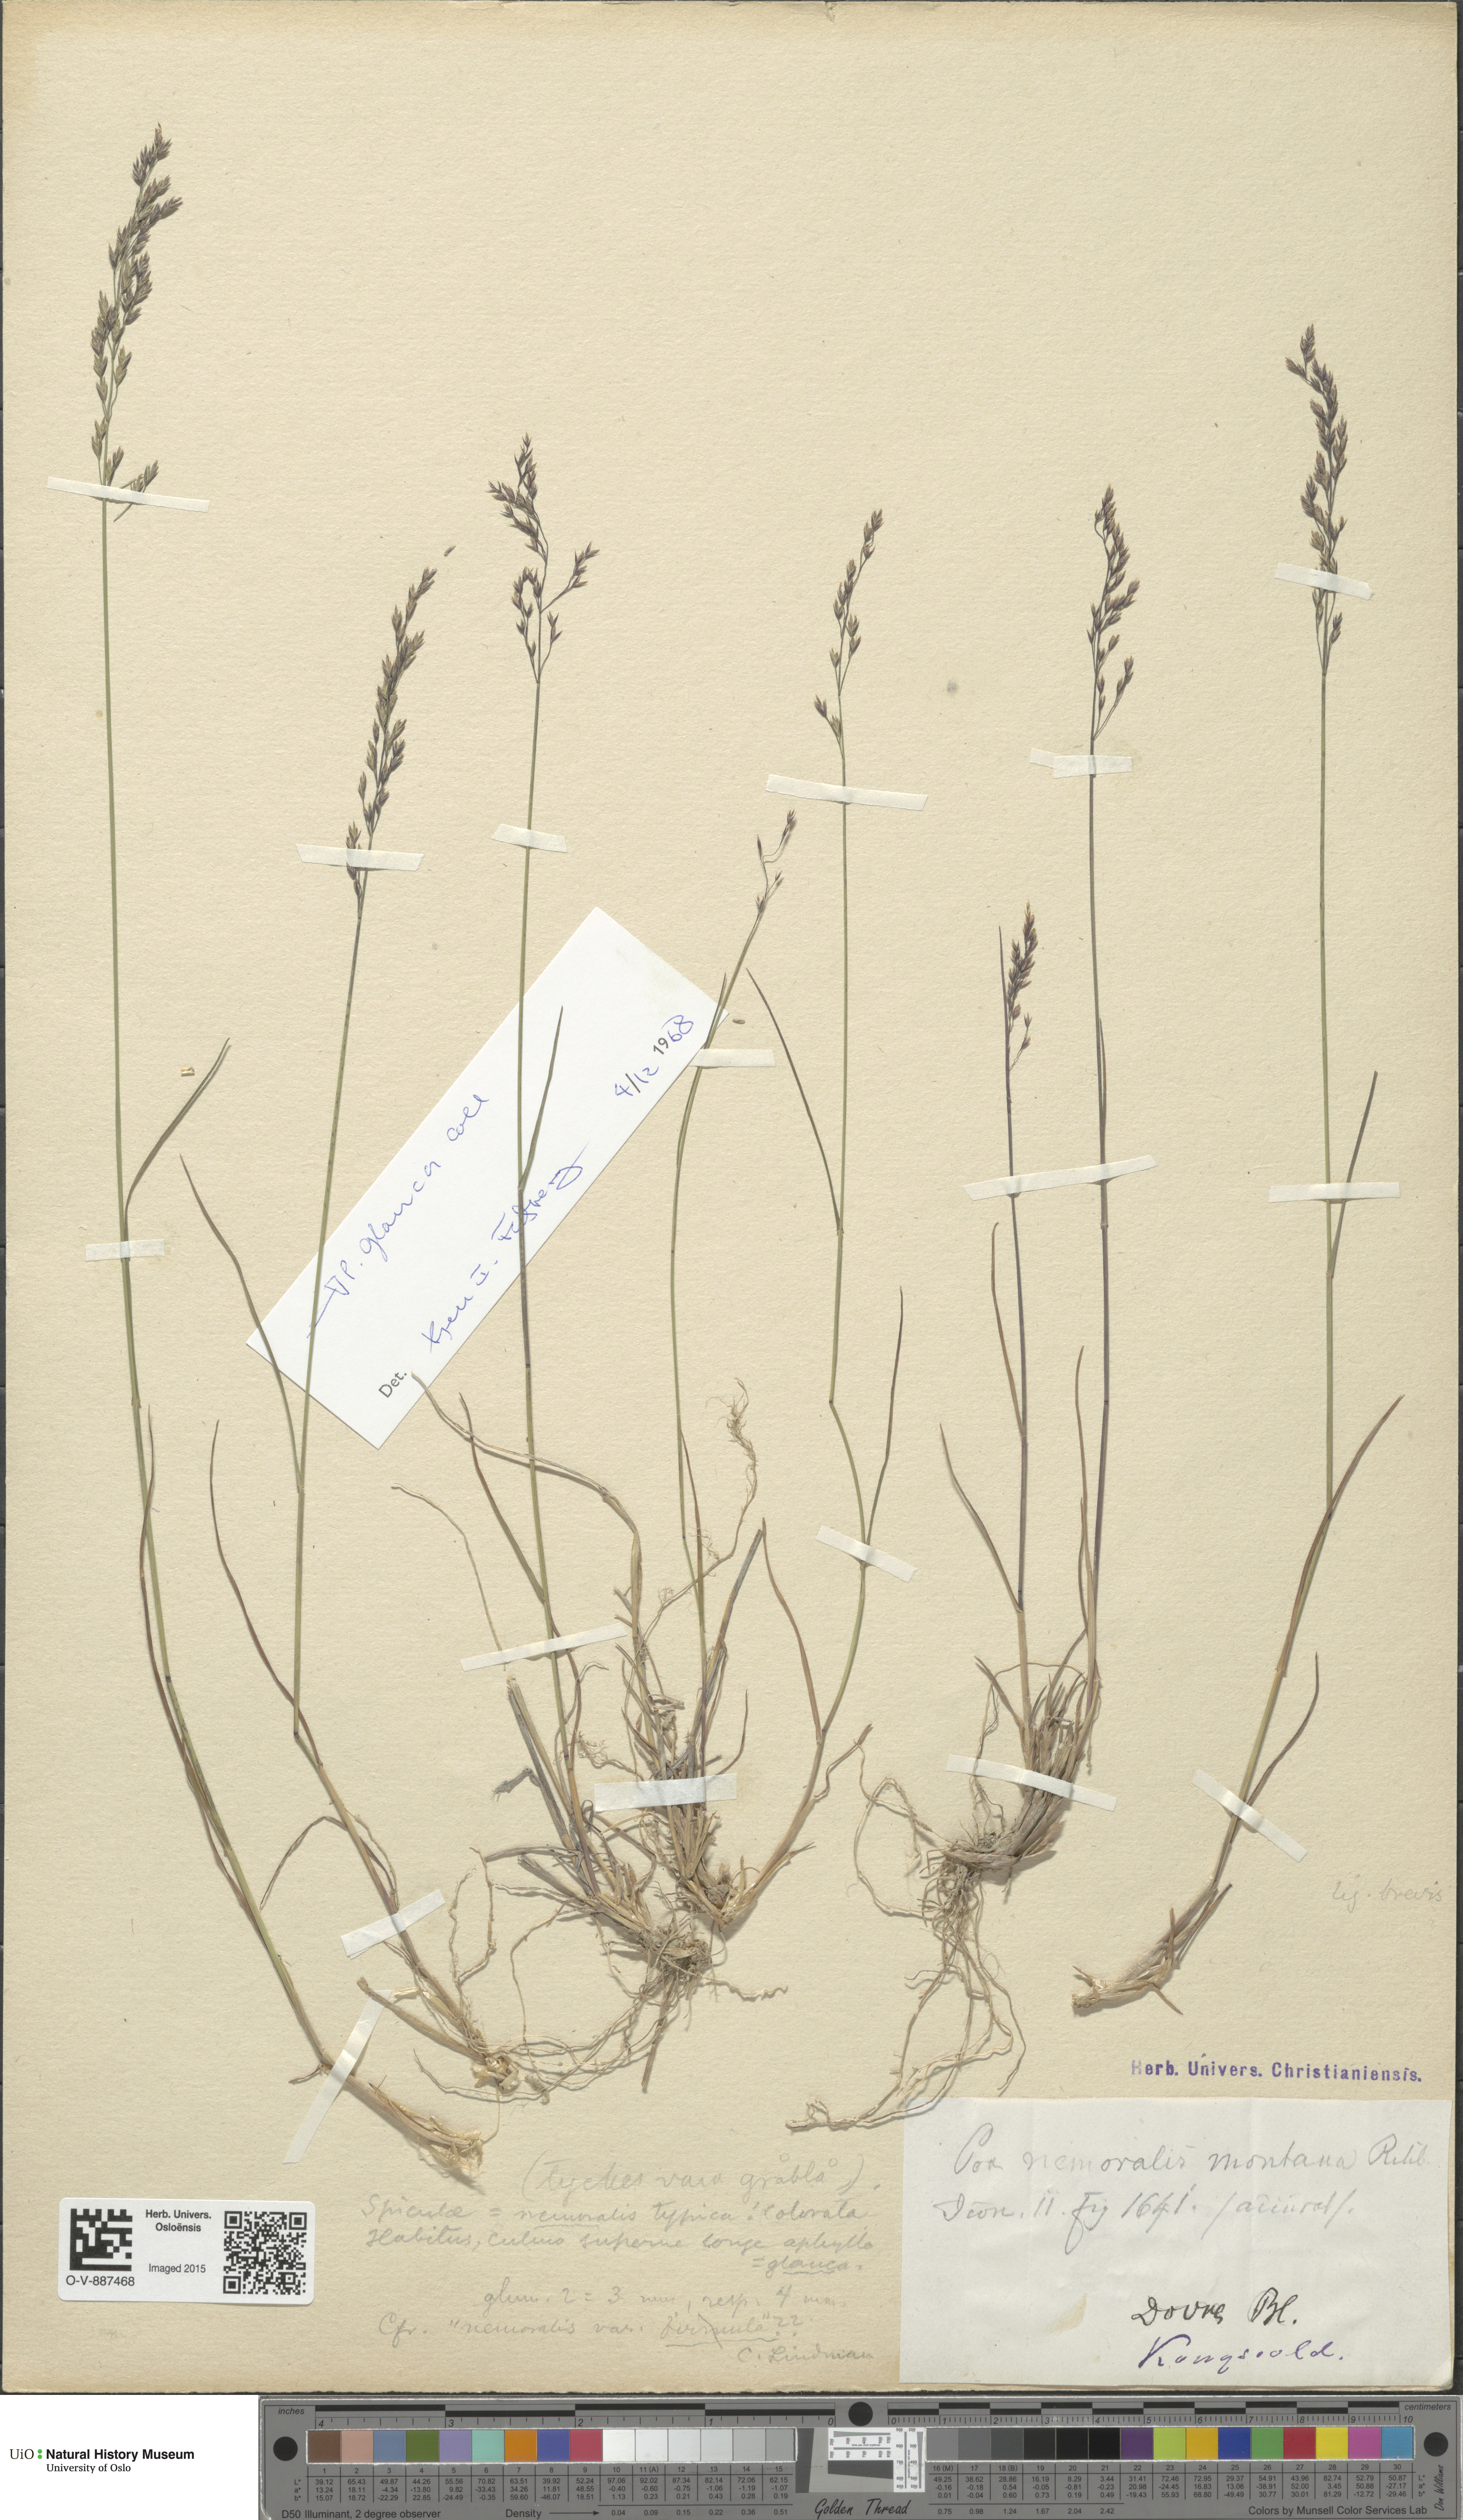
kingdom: Plantae
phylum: Tracheophyta
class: Liliopsida
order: Poales
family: Poaceae
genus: Poa
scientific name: Poa nemoralis
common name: Wood bluegrass
